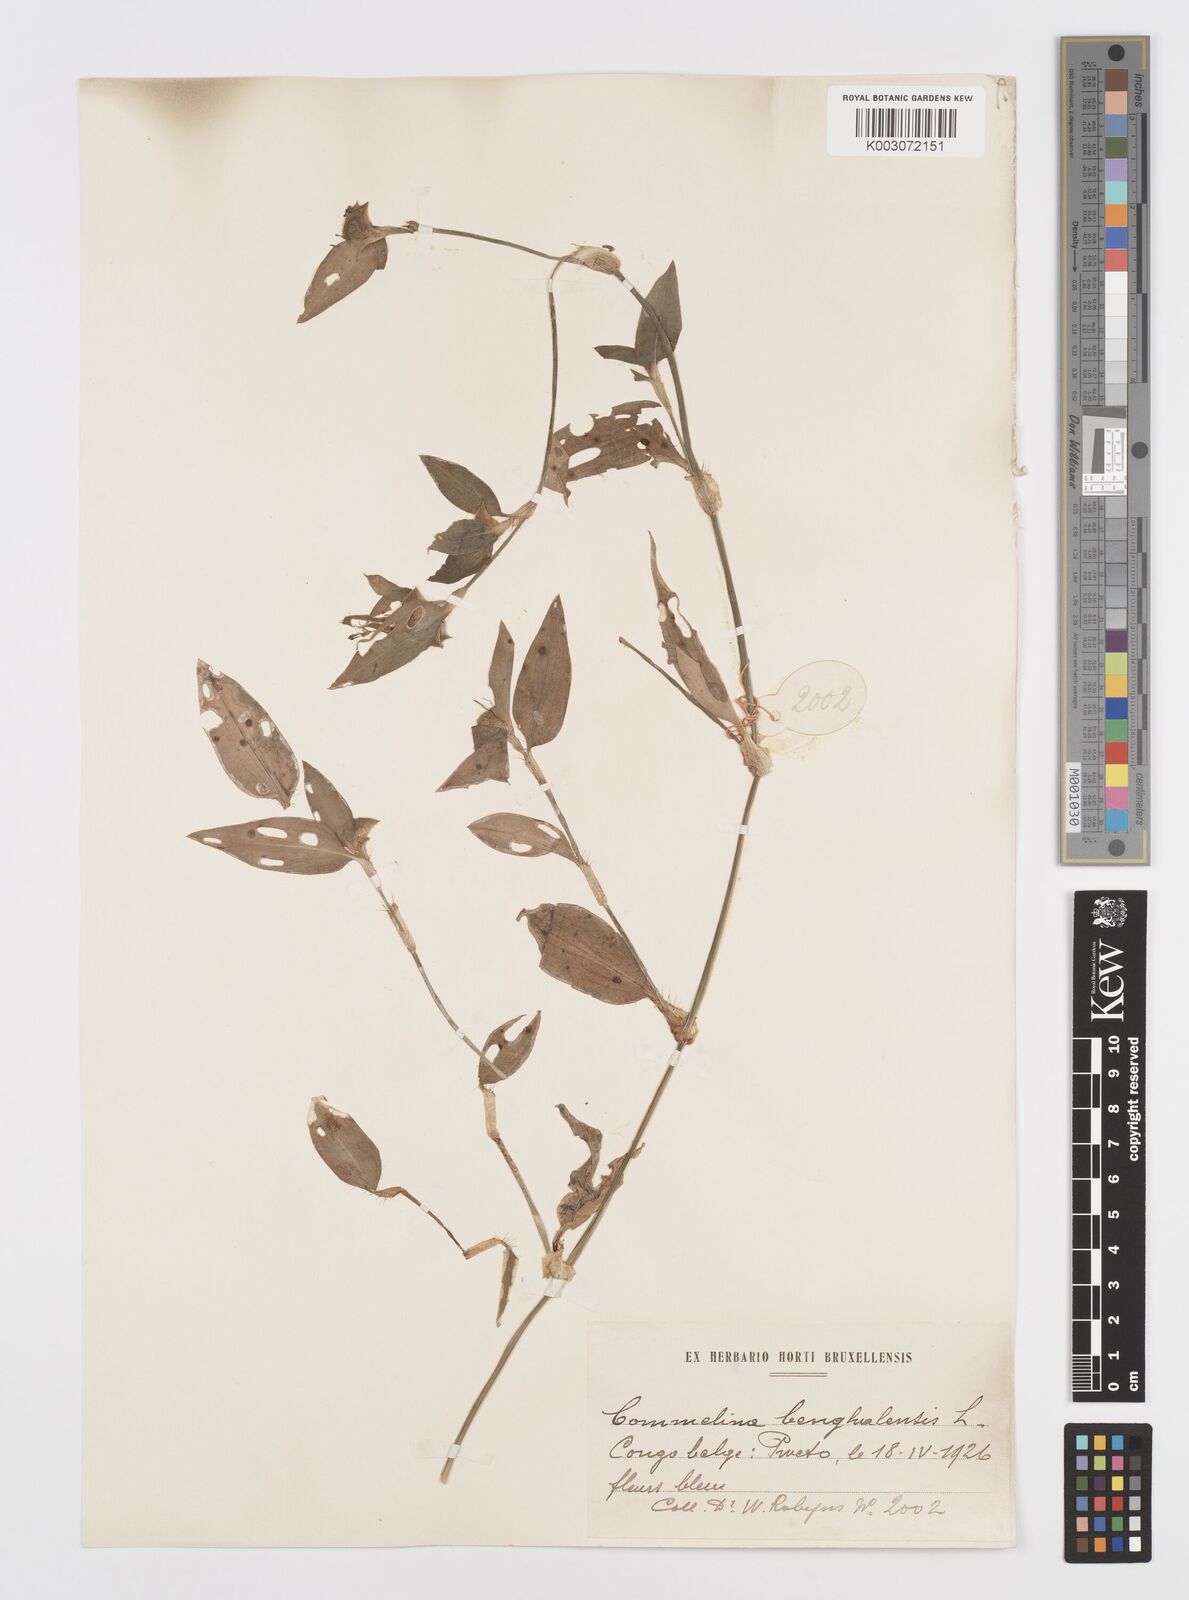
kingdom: Plantae
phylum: Tracheophyta
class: Liliopsida
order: Commelinales
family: Commelinaceae
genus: Commelina
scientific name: Commelina benghalensis
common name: Jio
